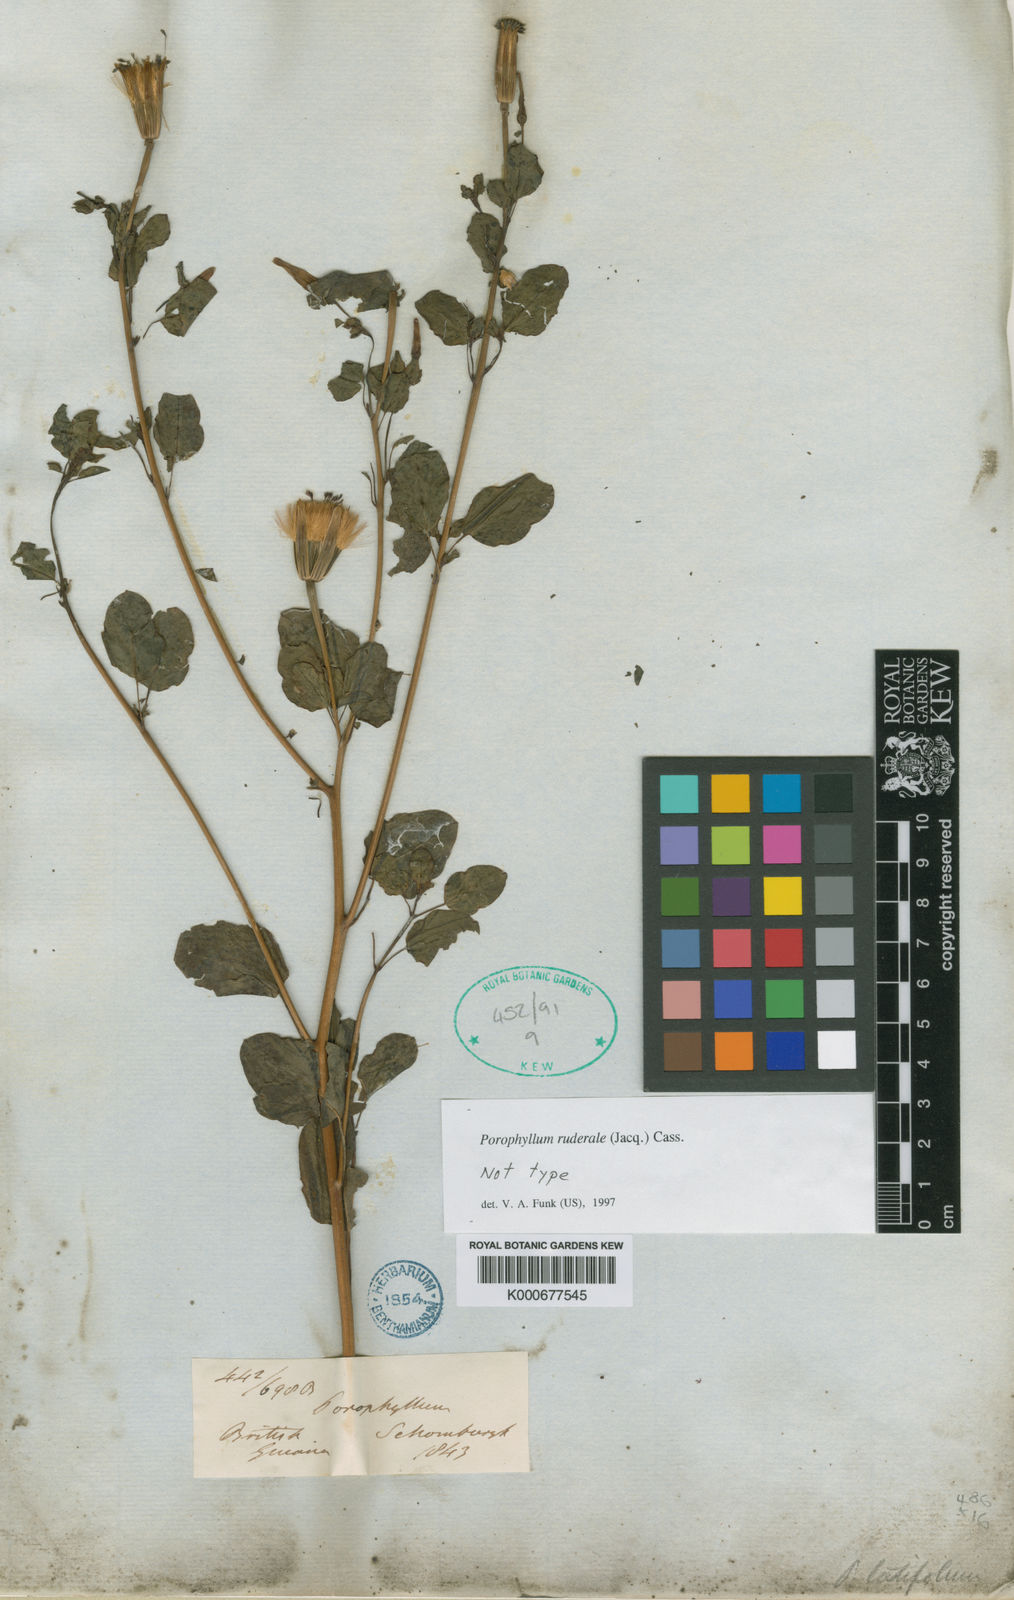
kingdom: Plantae
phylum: Tracheophyta
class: Magnoliopsida
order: Asterales
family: Asteraceae
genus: Porophyllum
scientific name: Porophyllum ruderale
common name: Yerba porosa
